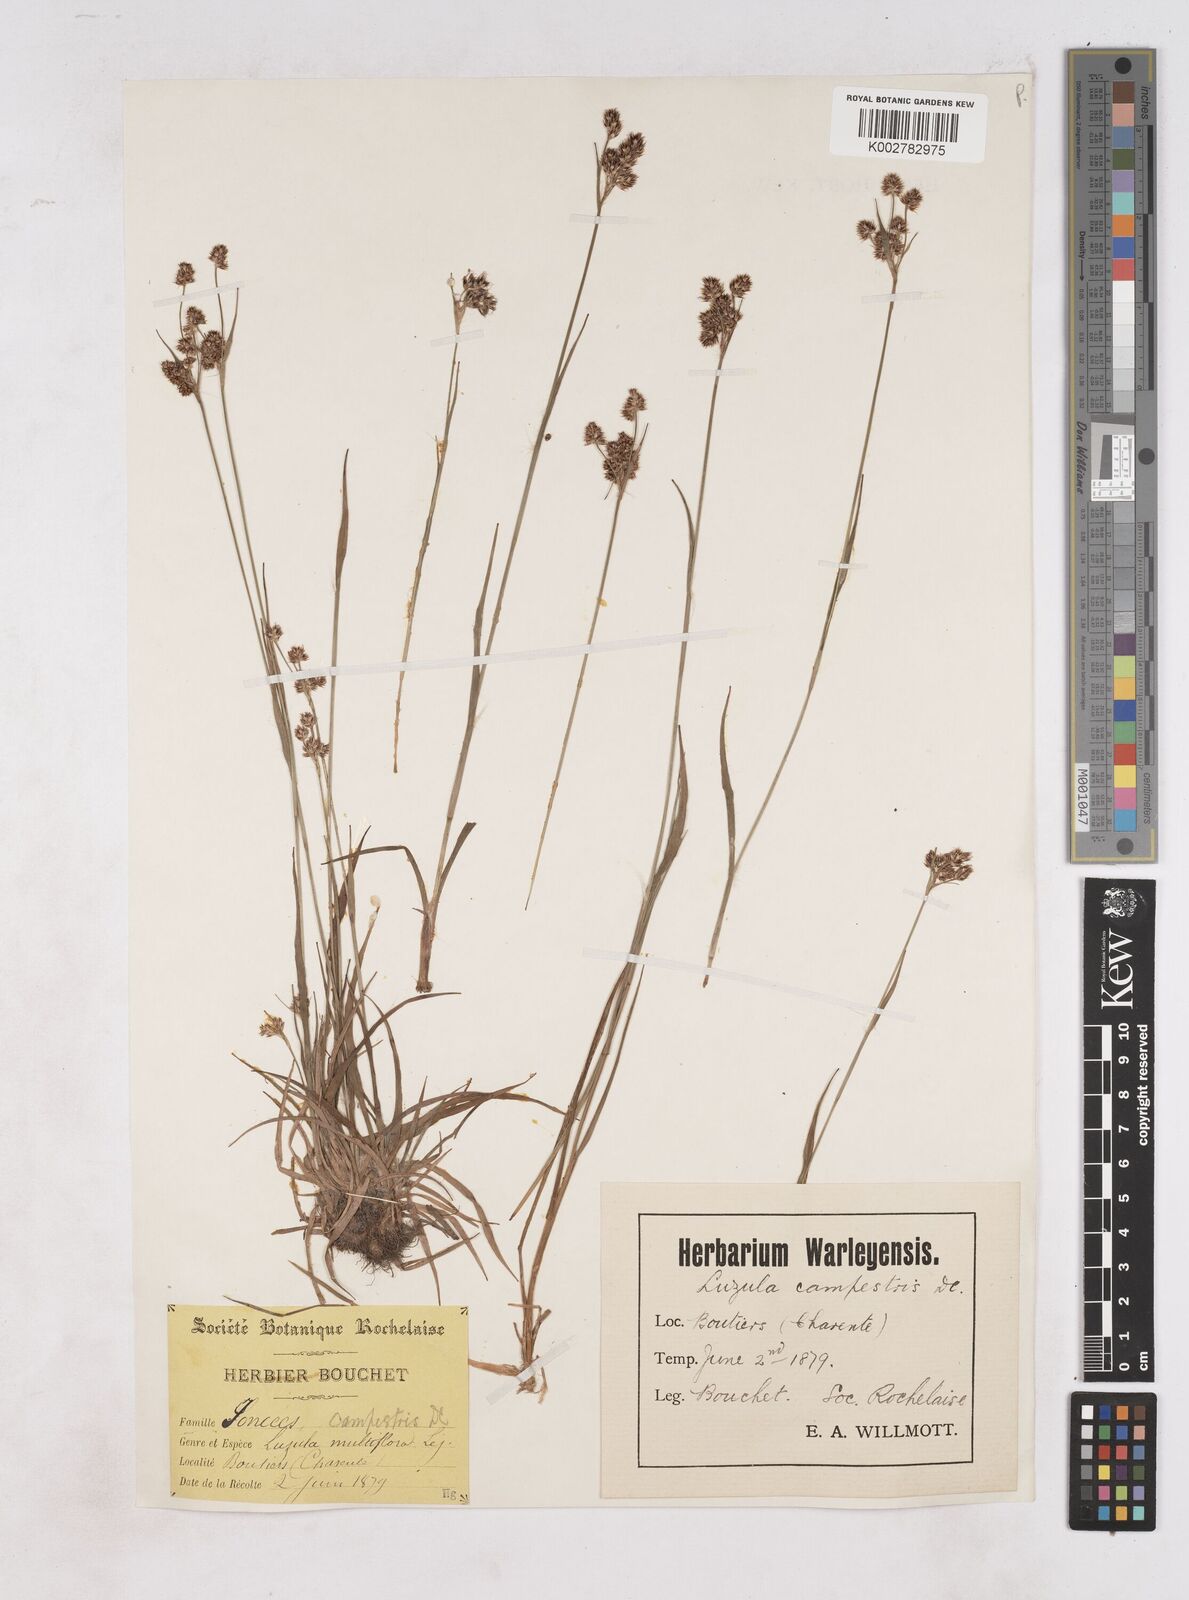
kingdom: Plantae
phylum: Tracheophyta
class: Liliopsida
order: Poales
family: Juncaceae
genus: Luzula
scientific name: Luzula campestris
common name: Field wood-rush
